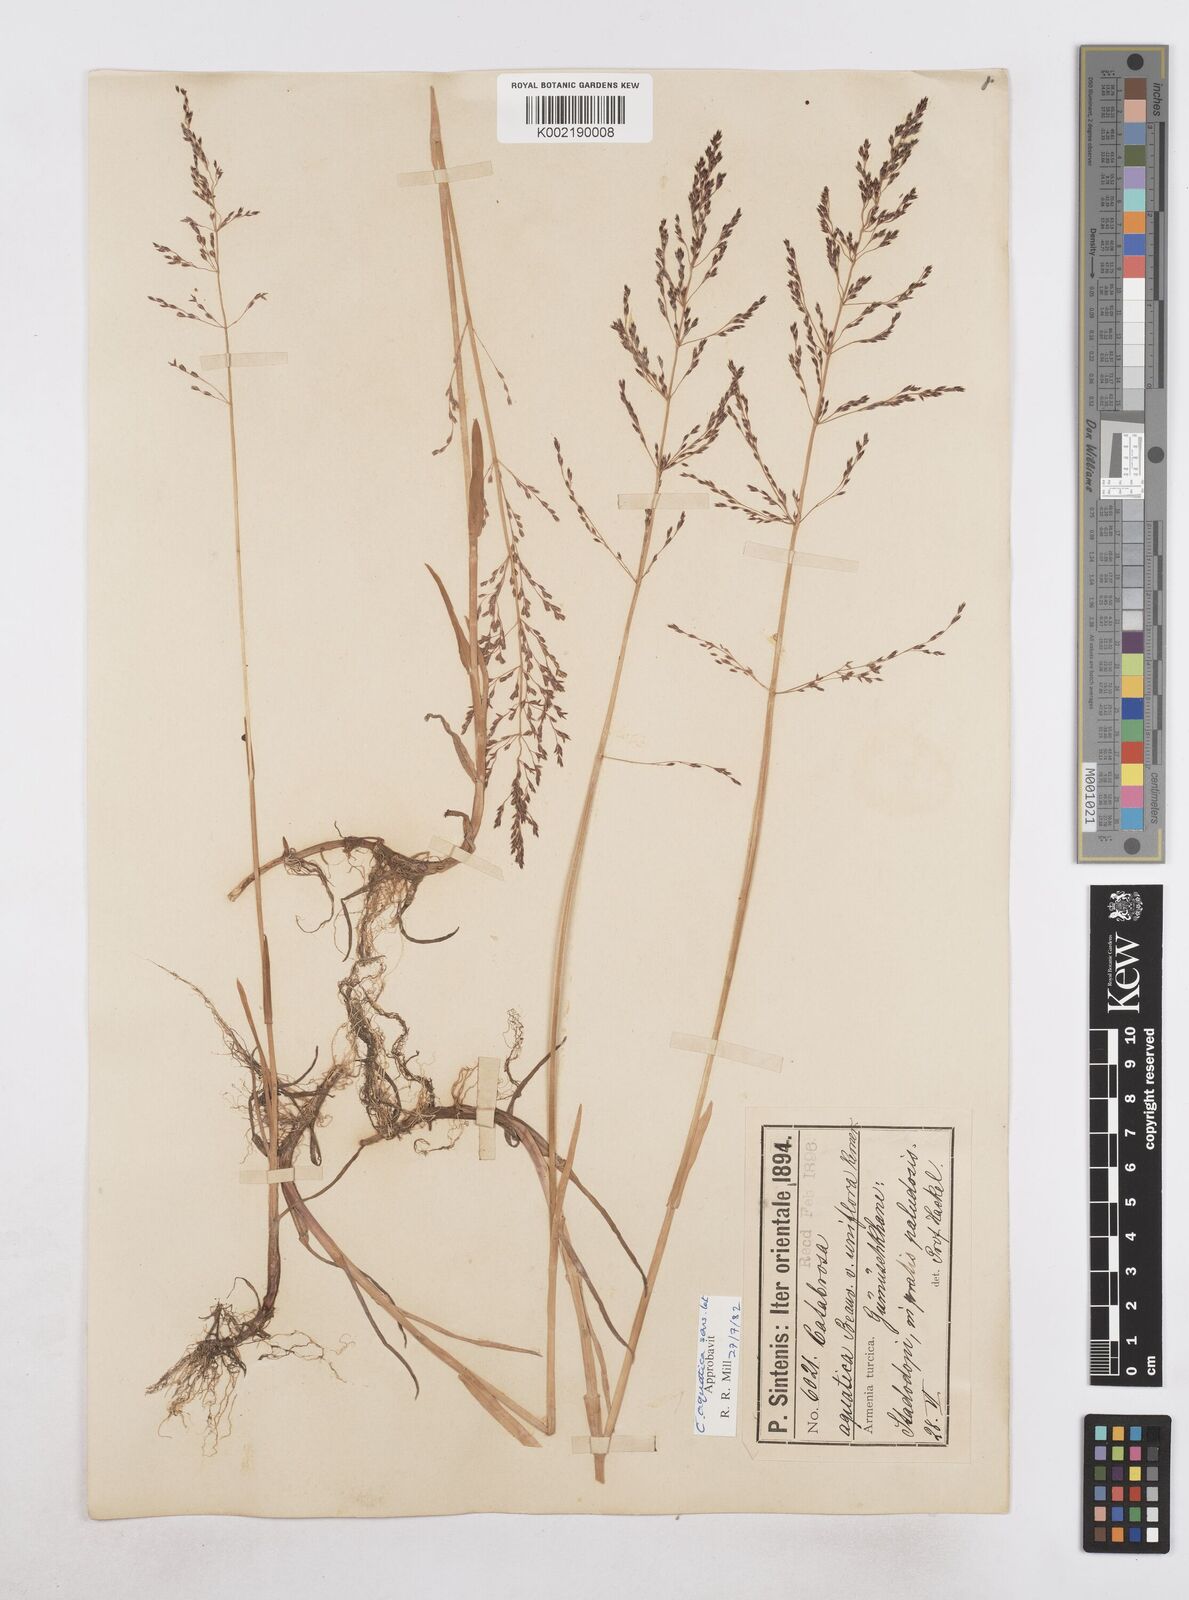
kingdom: Plantae
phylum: Tracheophyta
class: Liliopsida
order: Poales
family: Poaceae
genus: Catabrosa
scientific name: Catabrosa aquatica
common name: Whorl-grass
